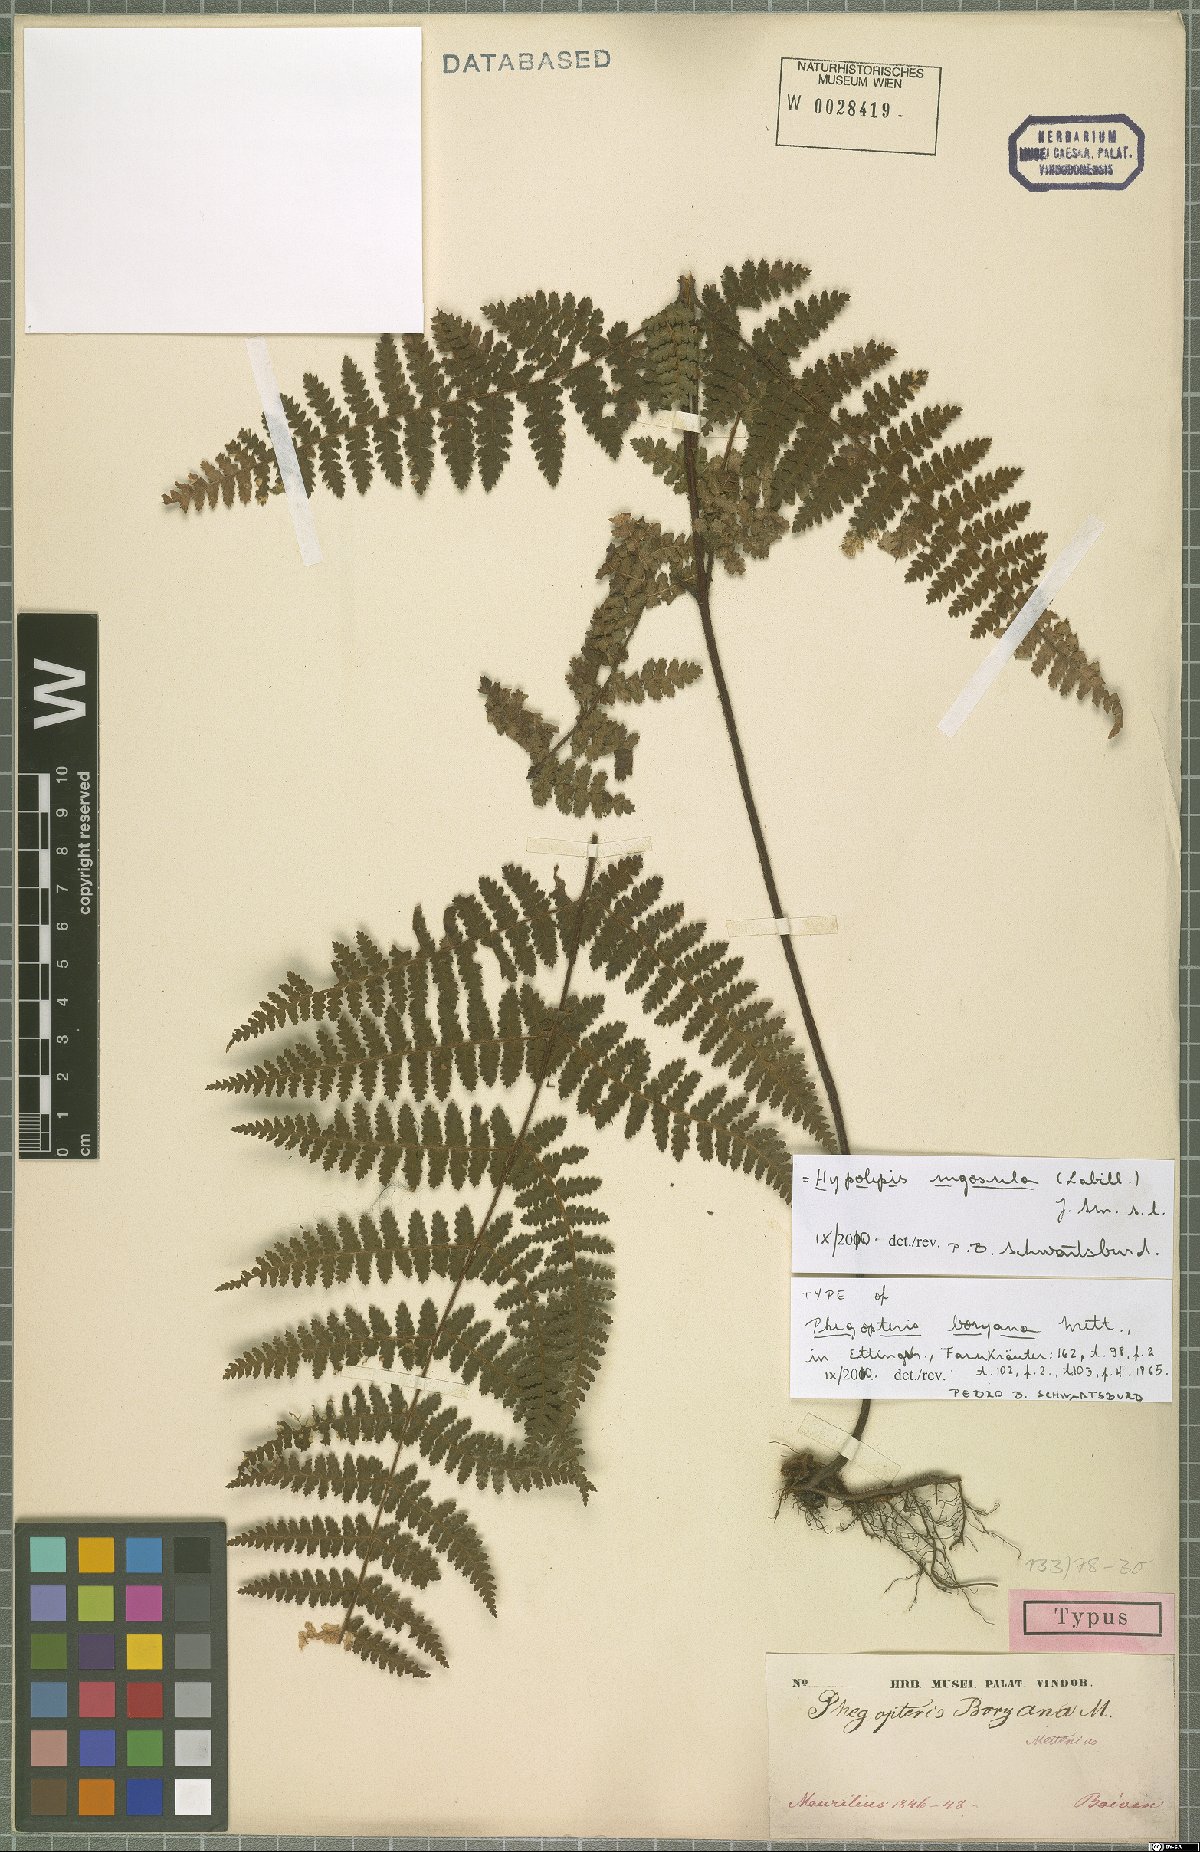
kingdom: Plantae
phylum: Tracheophyta
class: Polypodiopsida
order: Polypodiales
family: Dennstaedtiaceae
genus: Hypolepis
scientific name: Hypolepis rugosula
